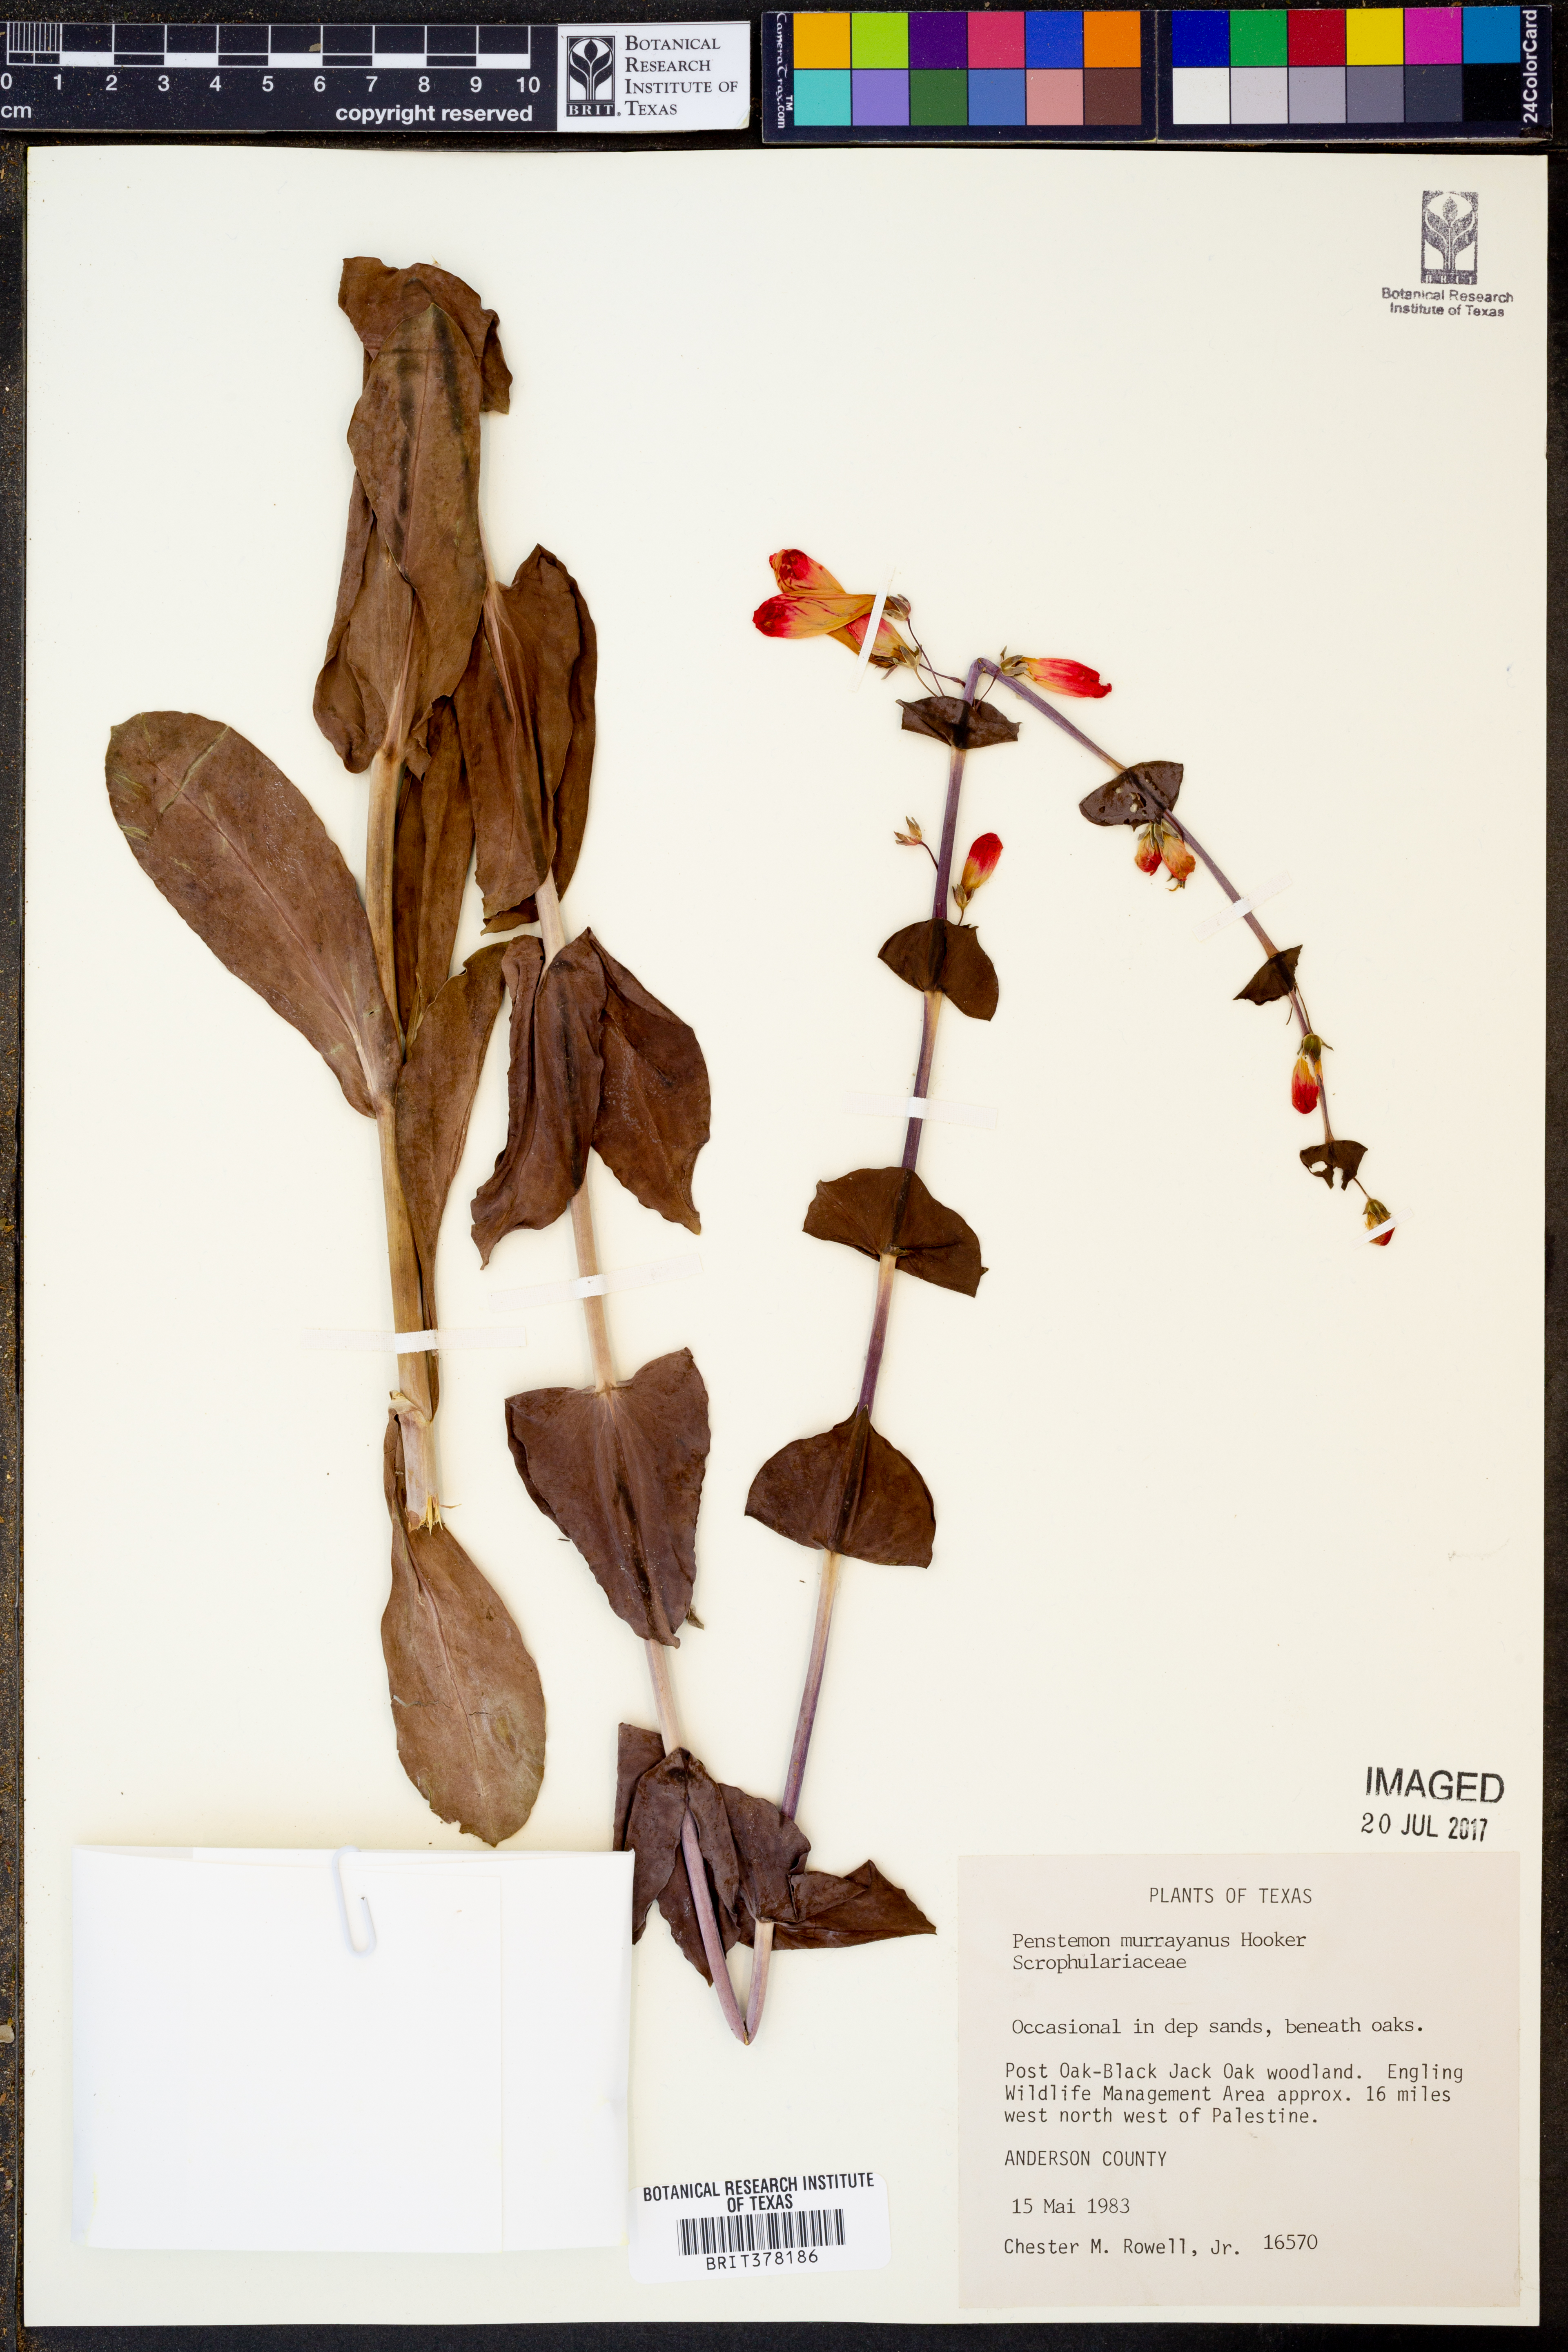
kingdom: Plantae
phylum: Tracheophyta
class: Magnoliopsida
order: Lamiales
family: Plantaginaceae
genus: Penstemon
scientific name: Penstemon murrayanus
